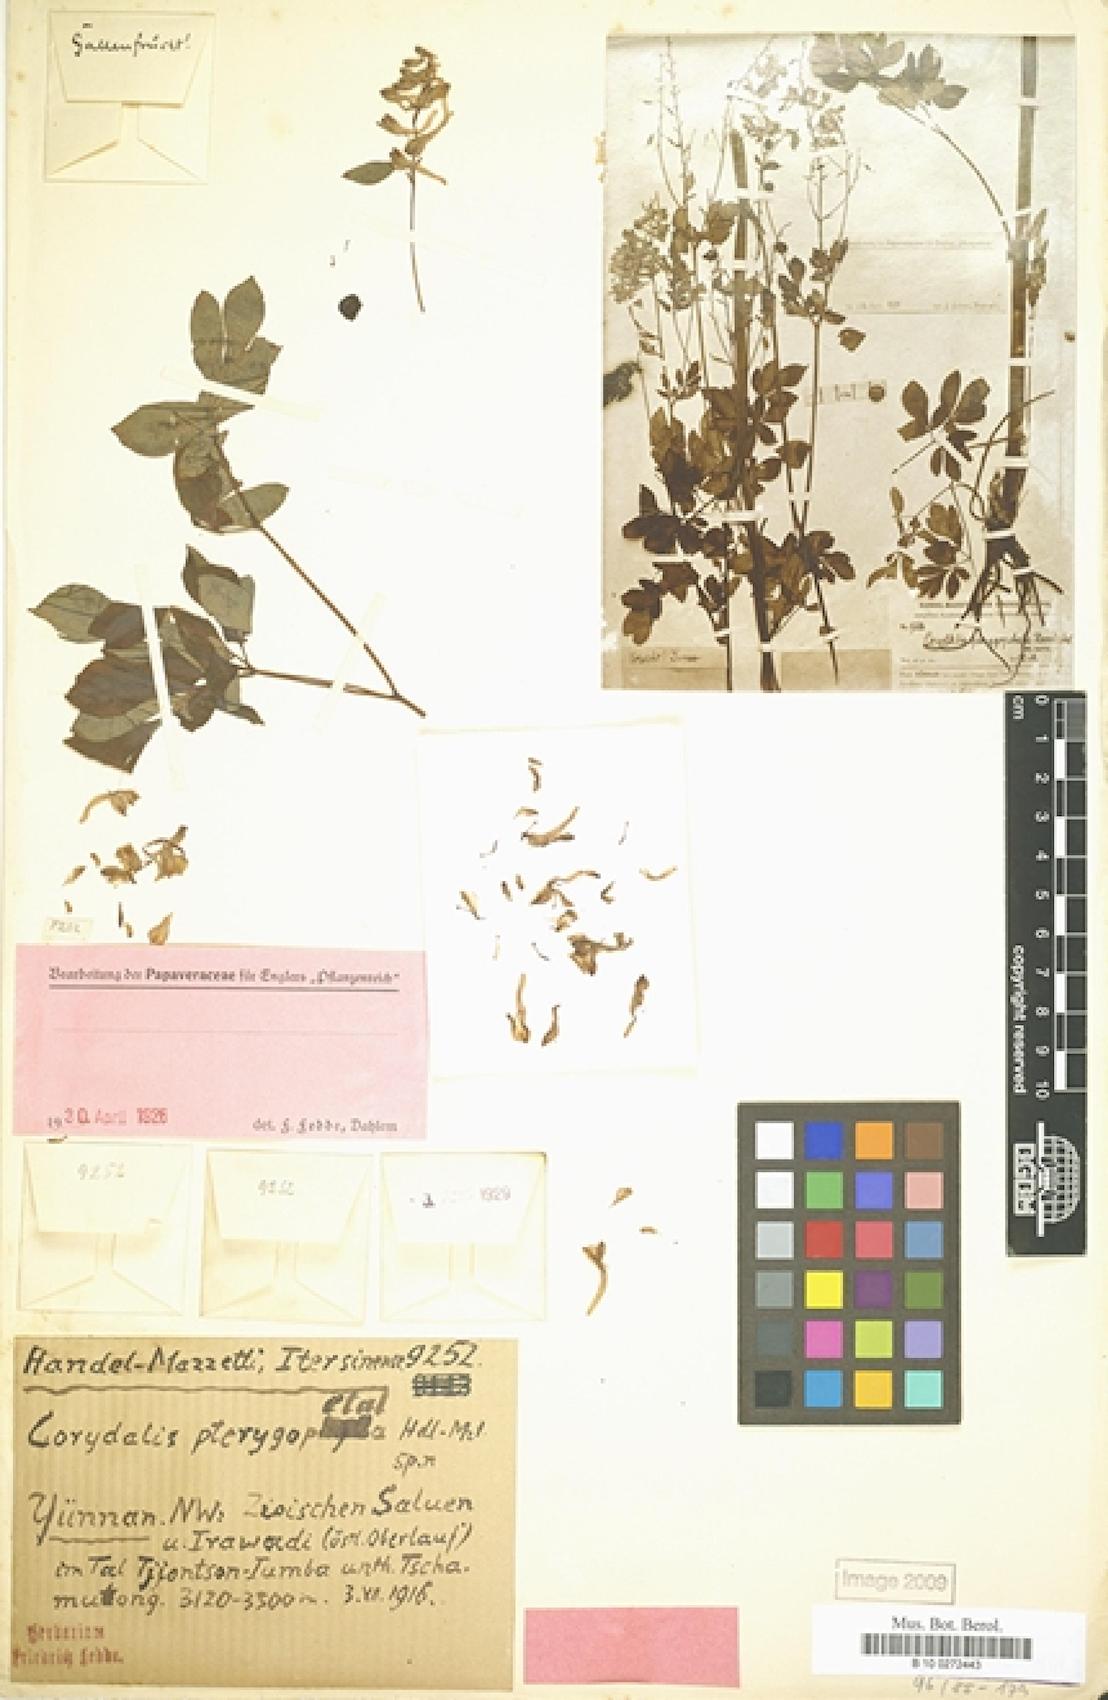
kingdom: Plantae
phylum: Tracheophyta
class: Magnoliopsida
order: Ranunculales
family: Papaveraceae
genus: Corydalis
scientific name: Corydalis pterygopetala
